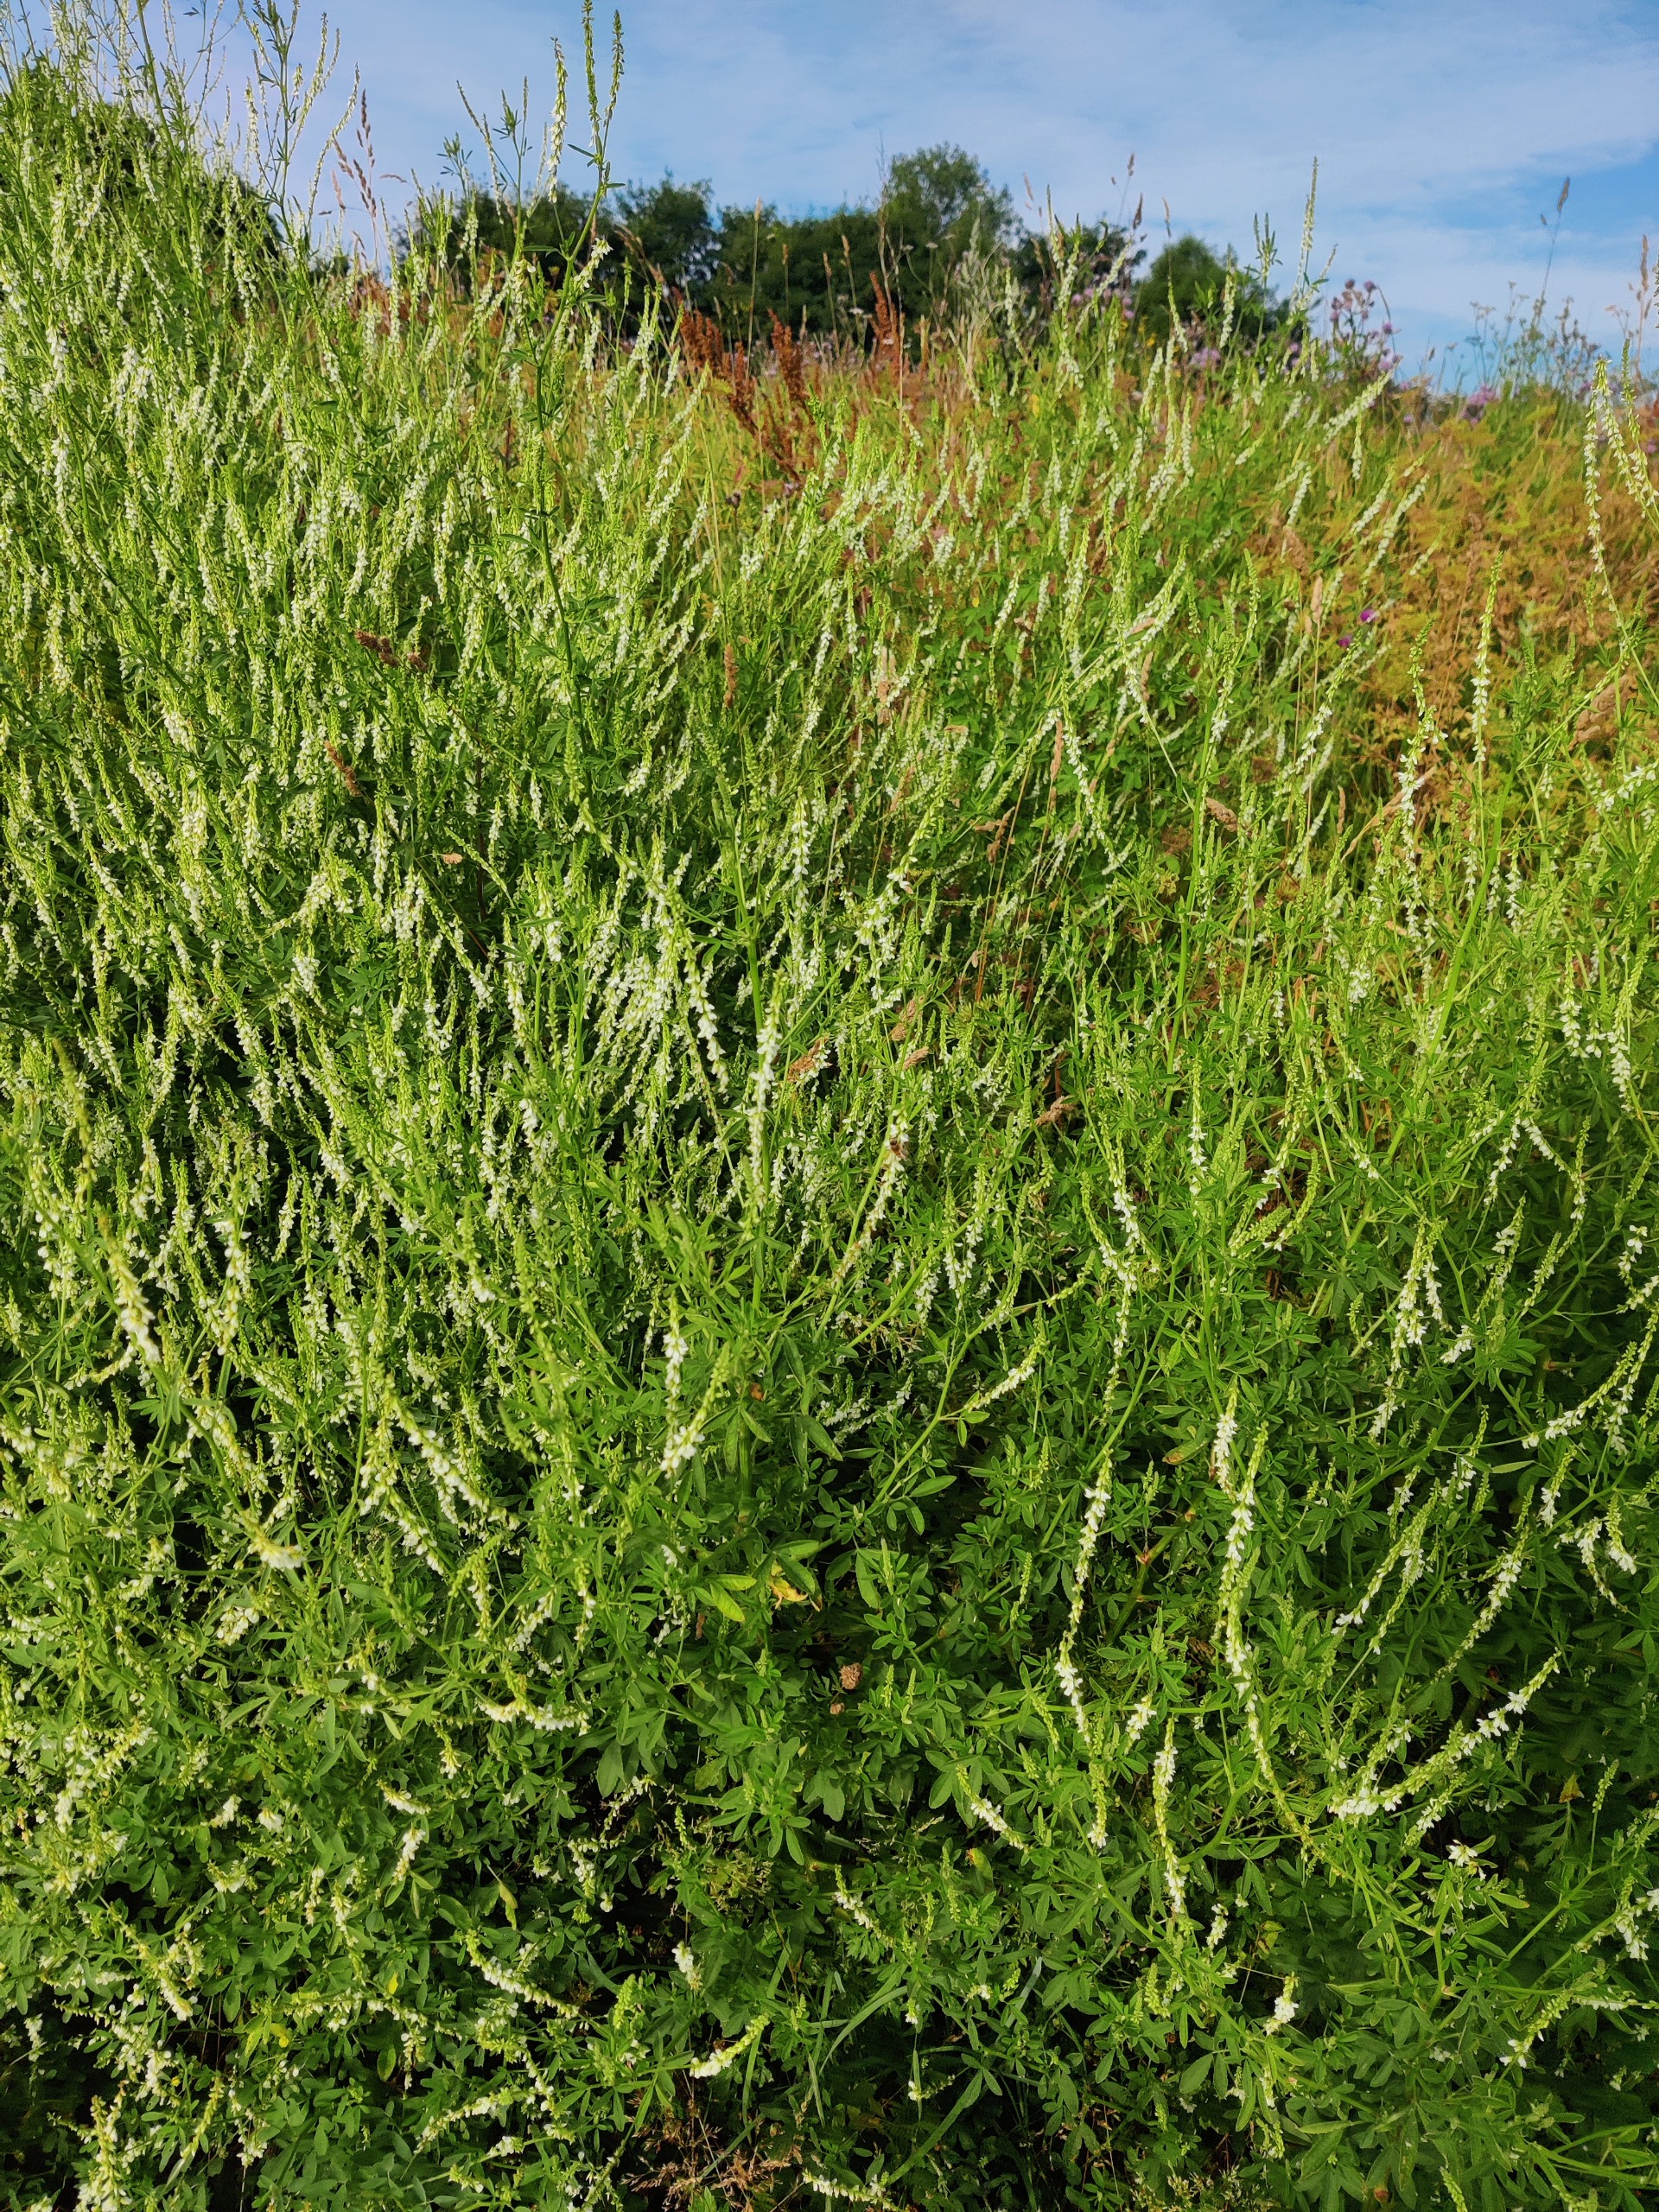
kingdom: Plantae
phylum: Tracheophyta
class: Magnoliopsida
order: Fabales
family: Fabaceae
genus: Melilotus
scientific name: Melilotus albus
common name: Hvid stenkløver
